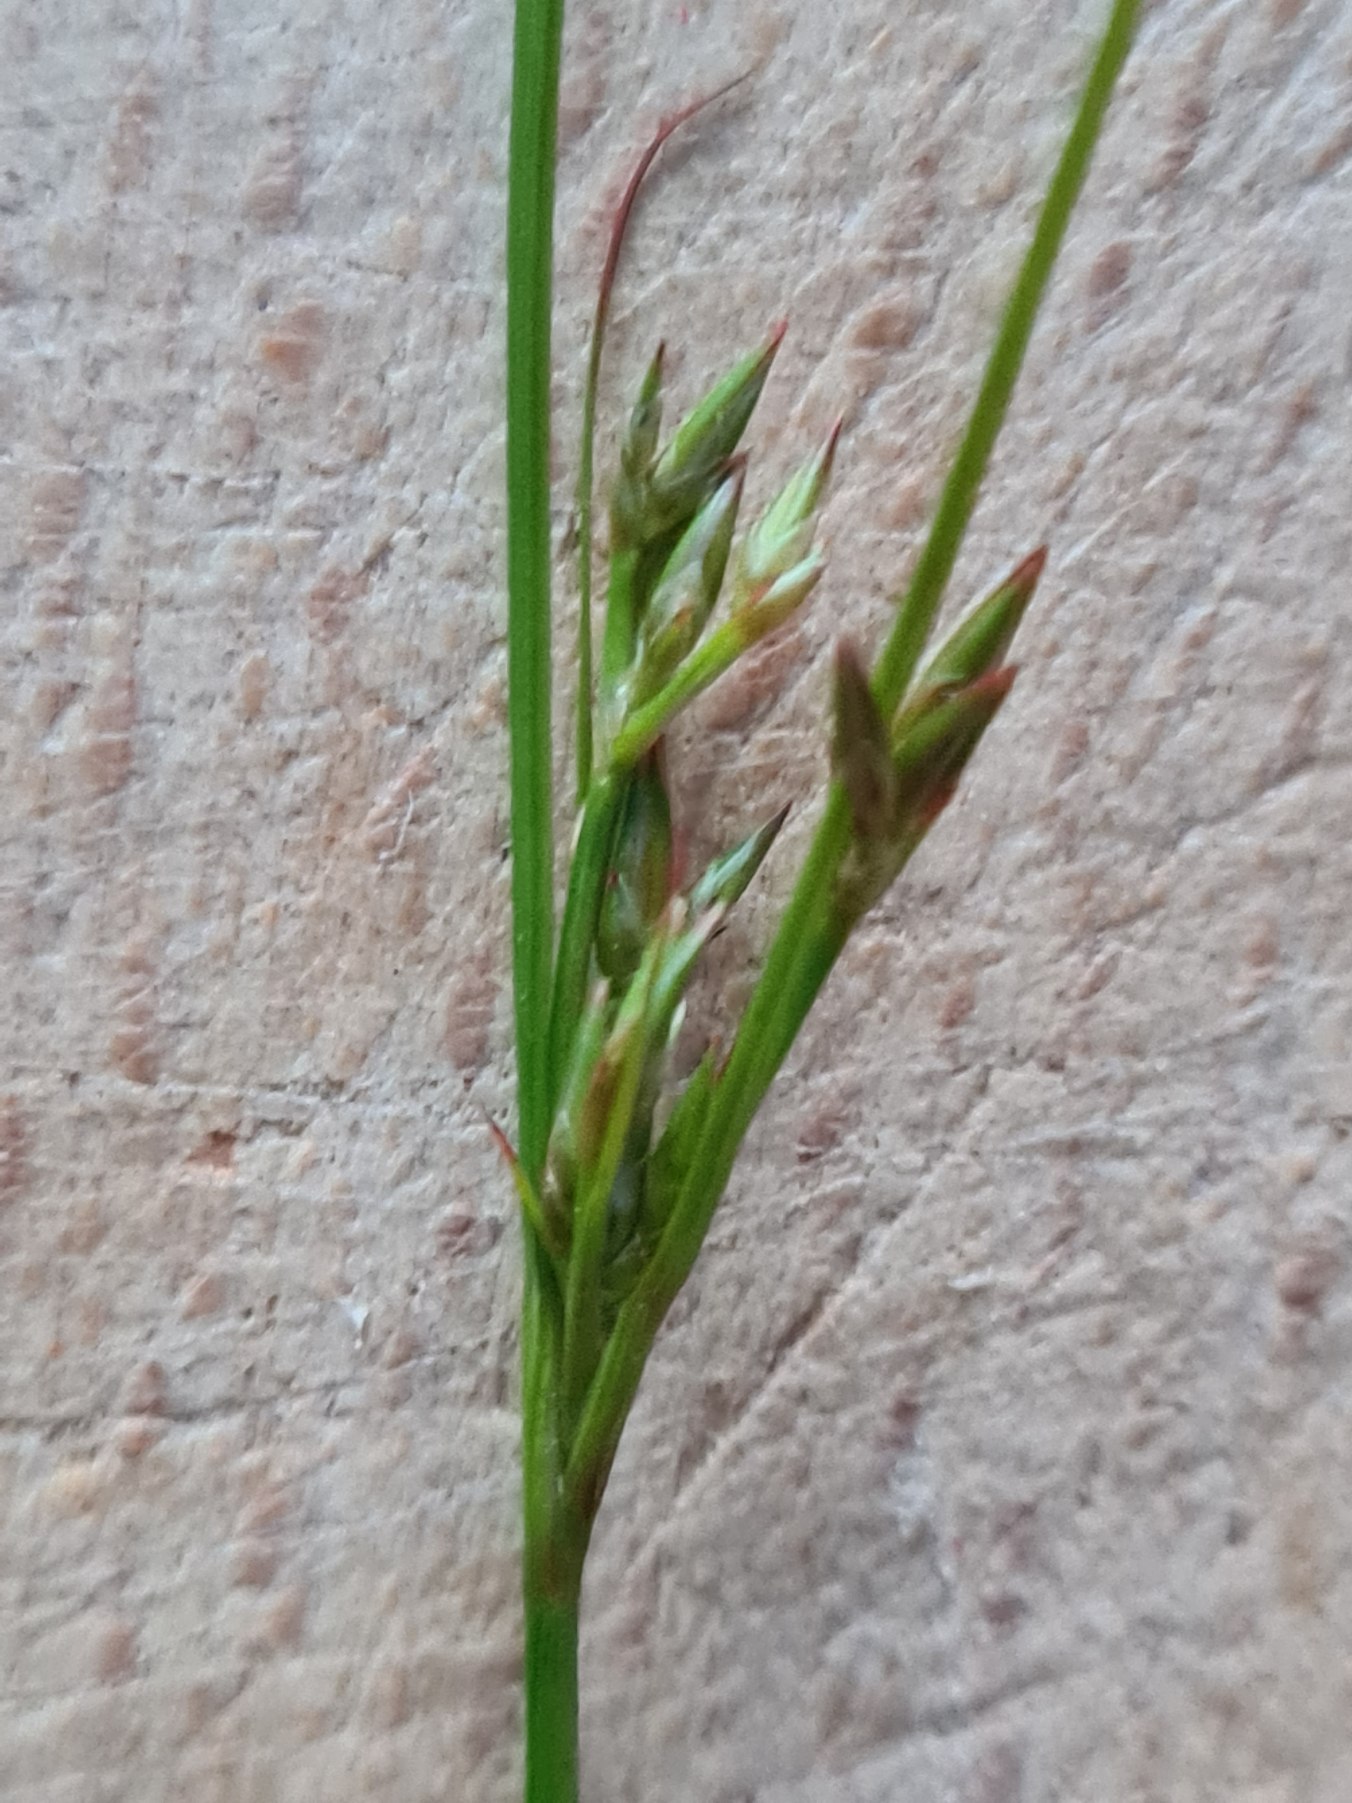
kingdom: Plantae
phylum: Tracheophyta
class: Liliopsida
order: Poales
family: Juncaceae
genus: Juncus
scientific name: Juncus tenuis
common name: Tue-siv
